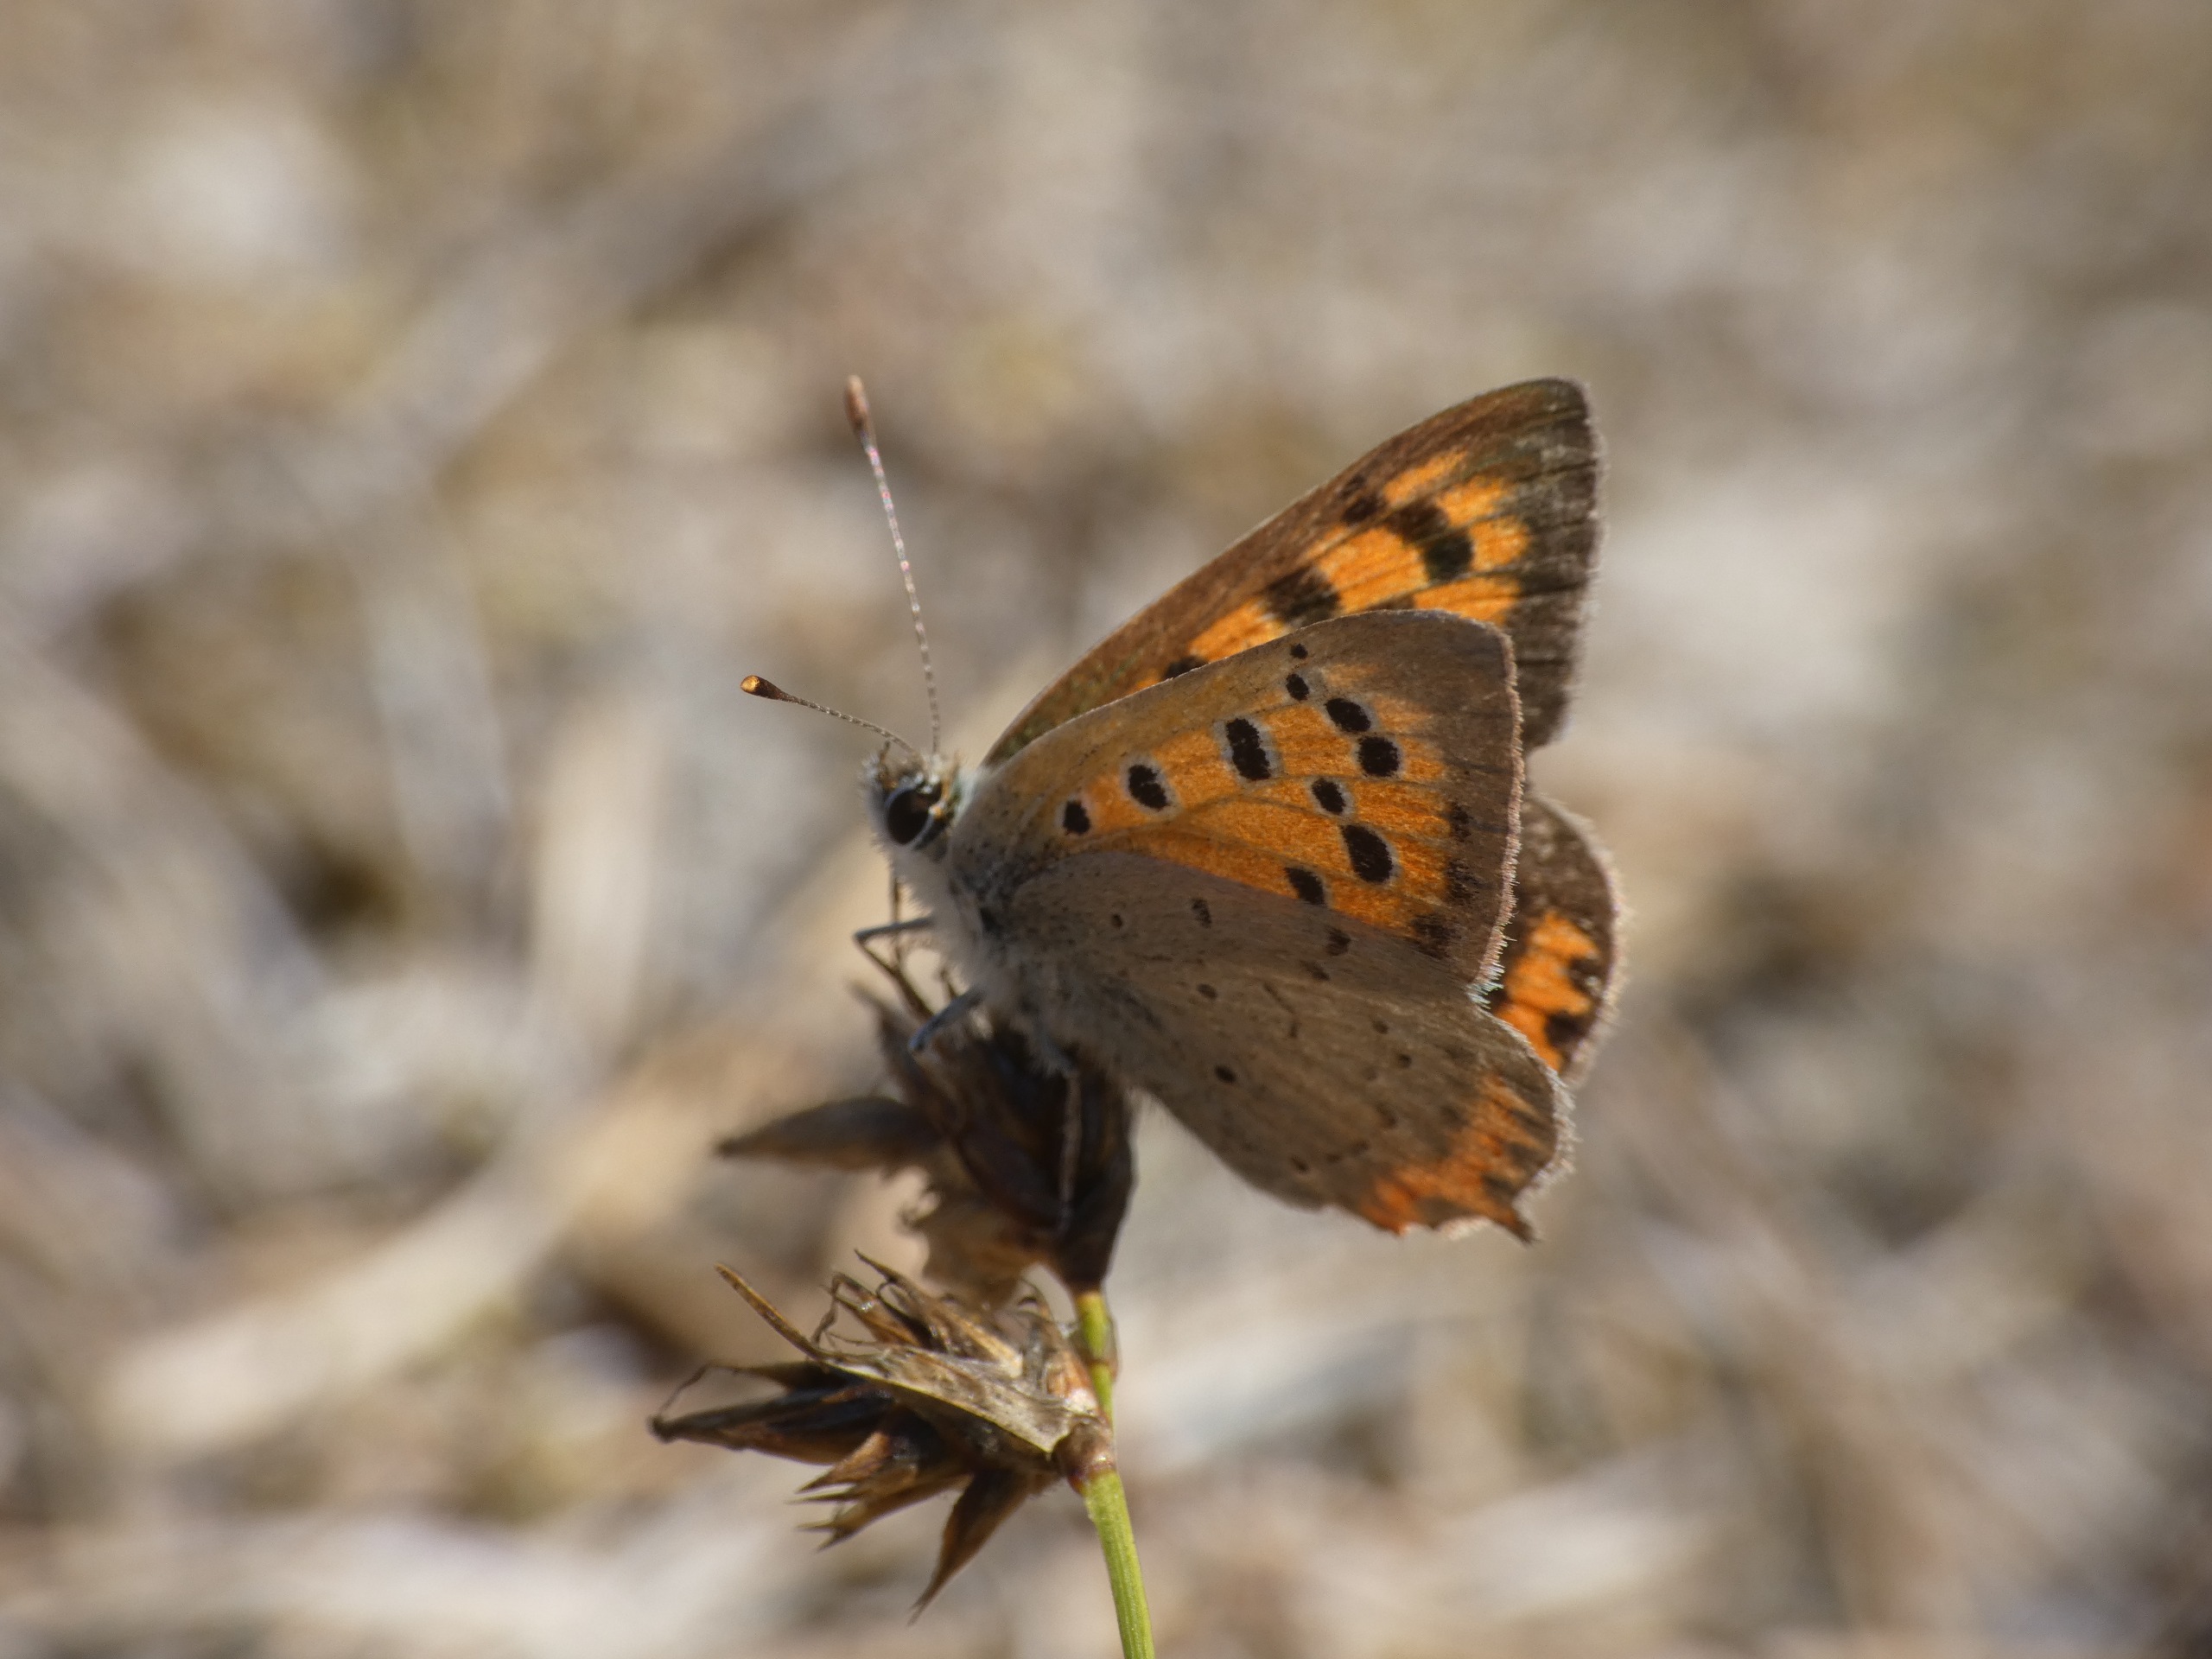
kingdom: Animalia
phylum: Arthropoda
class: Insecta
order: Lepidoptera
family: Lycaenidae
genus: Lycaena
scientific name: Lycaena phlaeas
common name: Lille ildfugl
